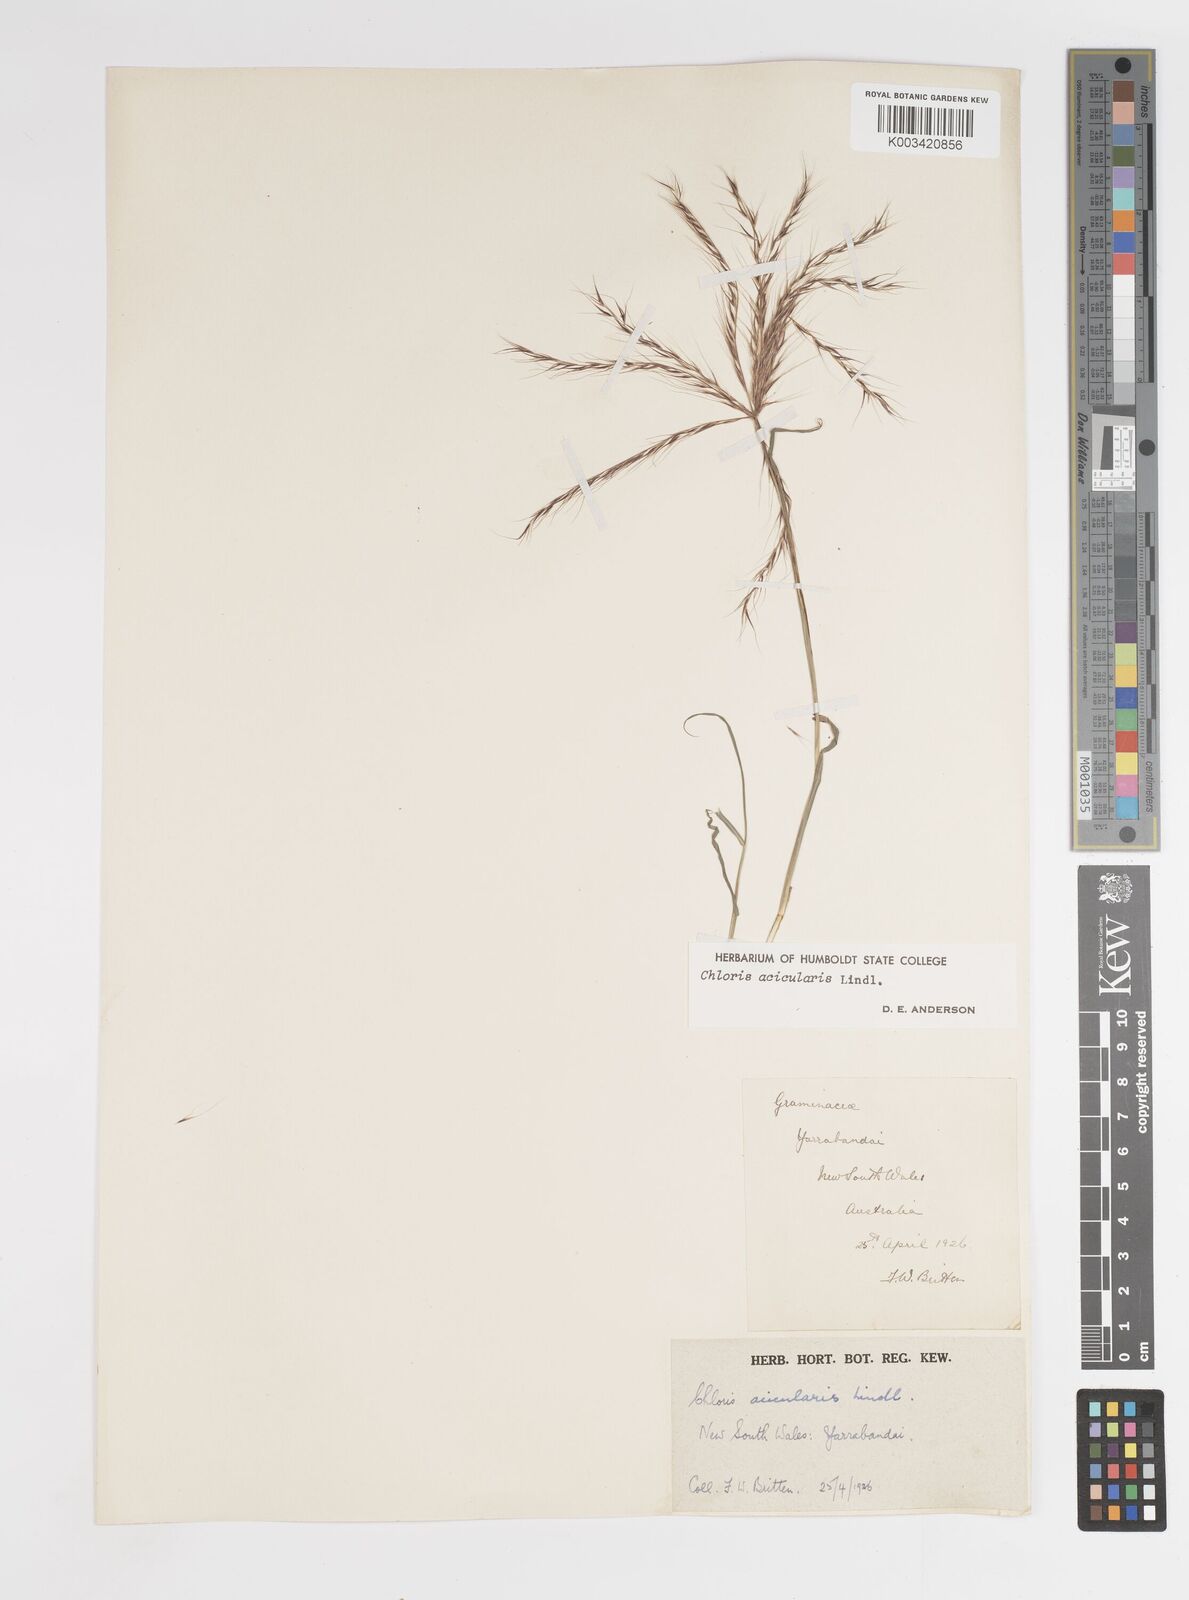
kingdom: Plantae
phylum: Tracheophyta
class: Liliopsida
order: Poales
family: Poaceae
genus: Enteropogon
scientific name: Enteropogon acicularis
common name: Curly windmill grass
